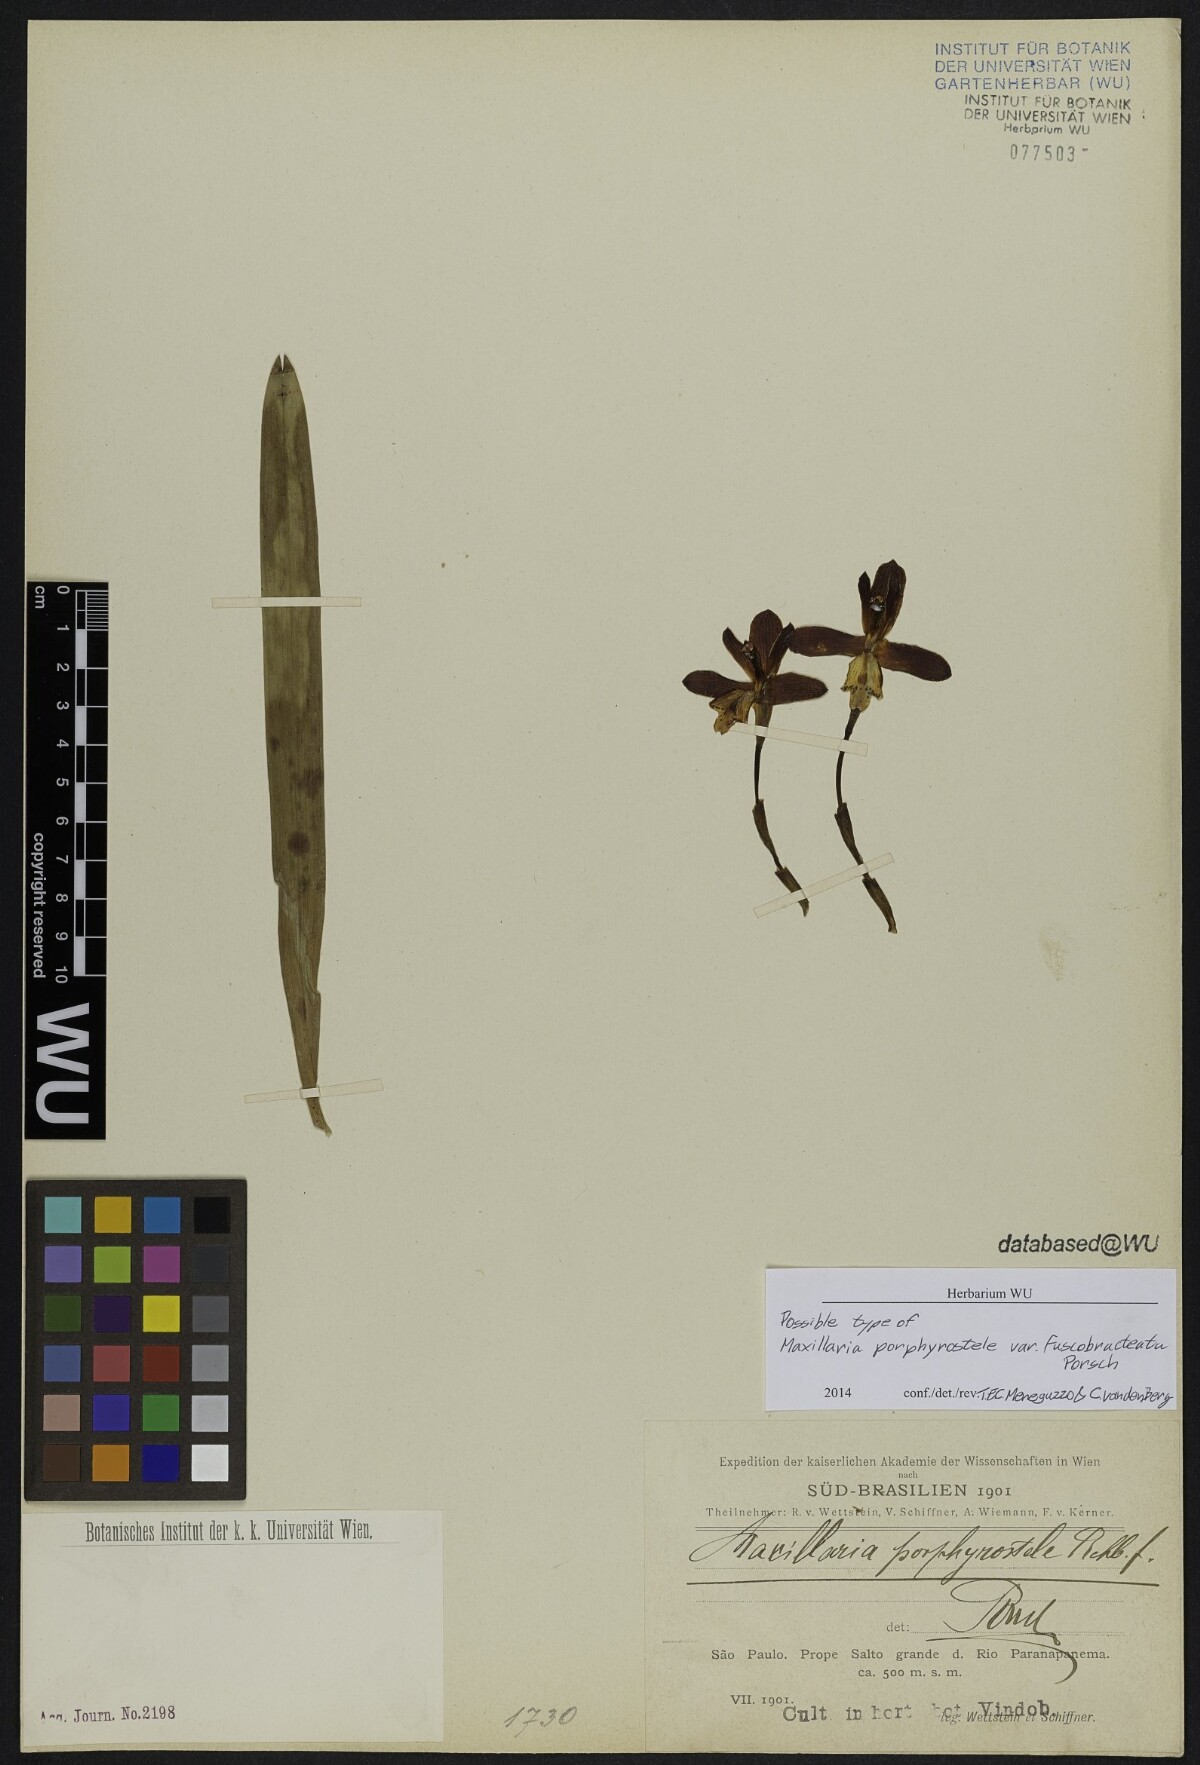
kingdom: Plantae
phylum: Tracheophyta
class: Liliopsida
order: Asparagales
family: Orchidaceae
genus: Maxillaria
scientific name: Maxillaria porphyrostele
